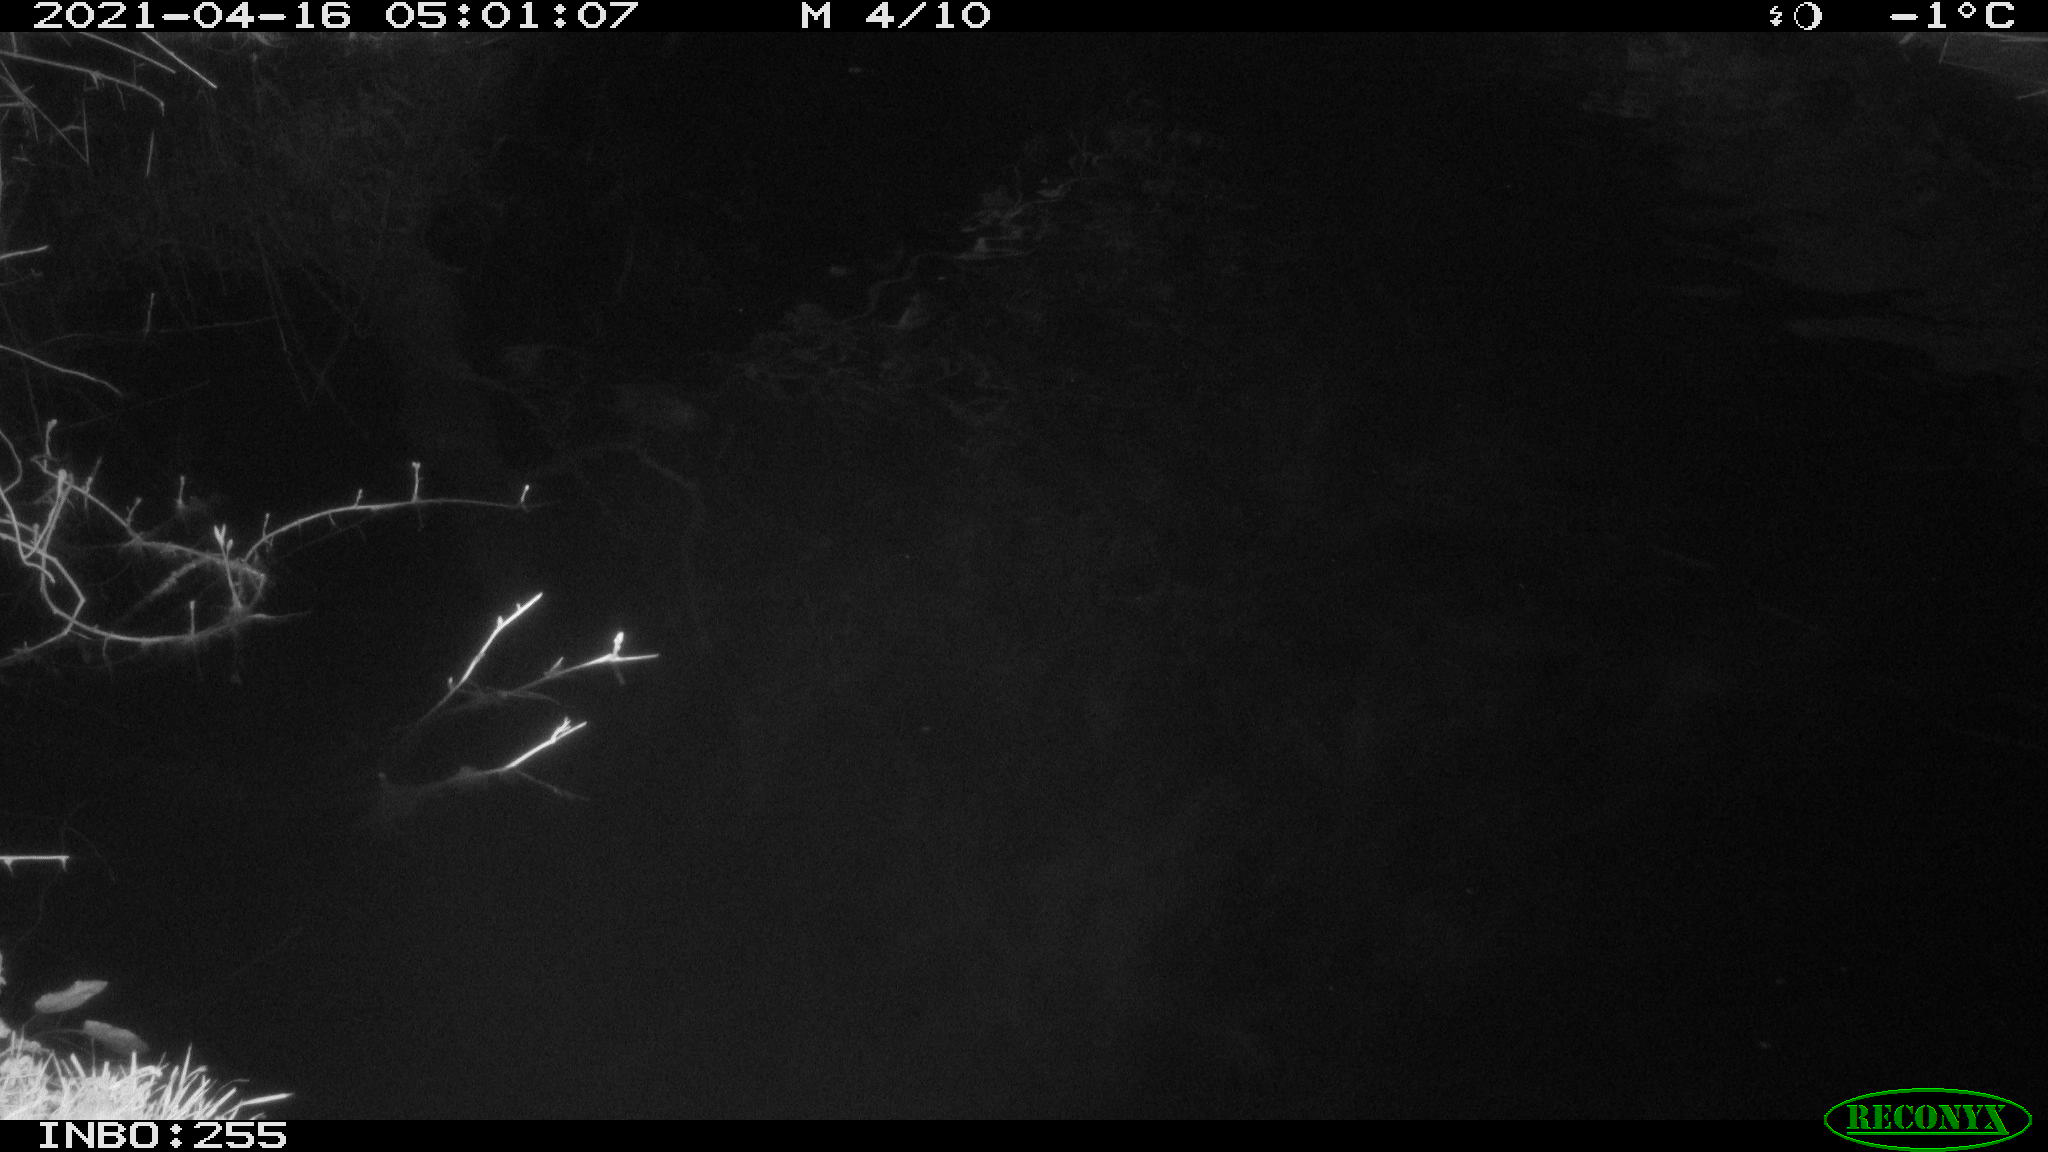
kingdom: Animalia
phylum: Chordata
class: Aves
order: Anseriformes
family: Anatidae
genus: Anas
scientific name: Anas platyrhynchos
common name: Mallard
